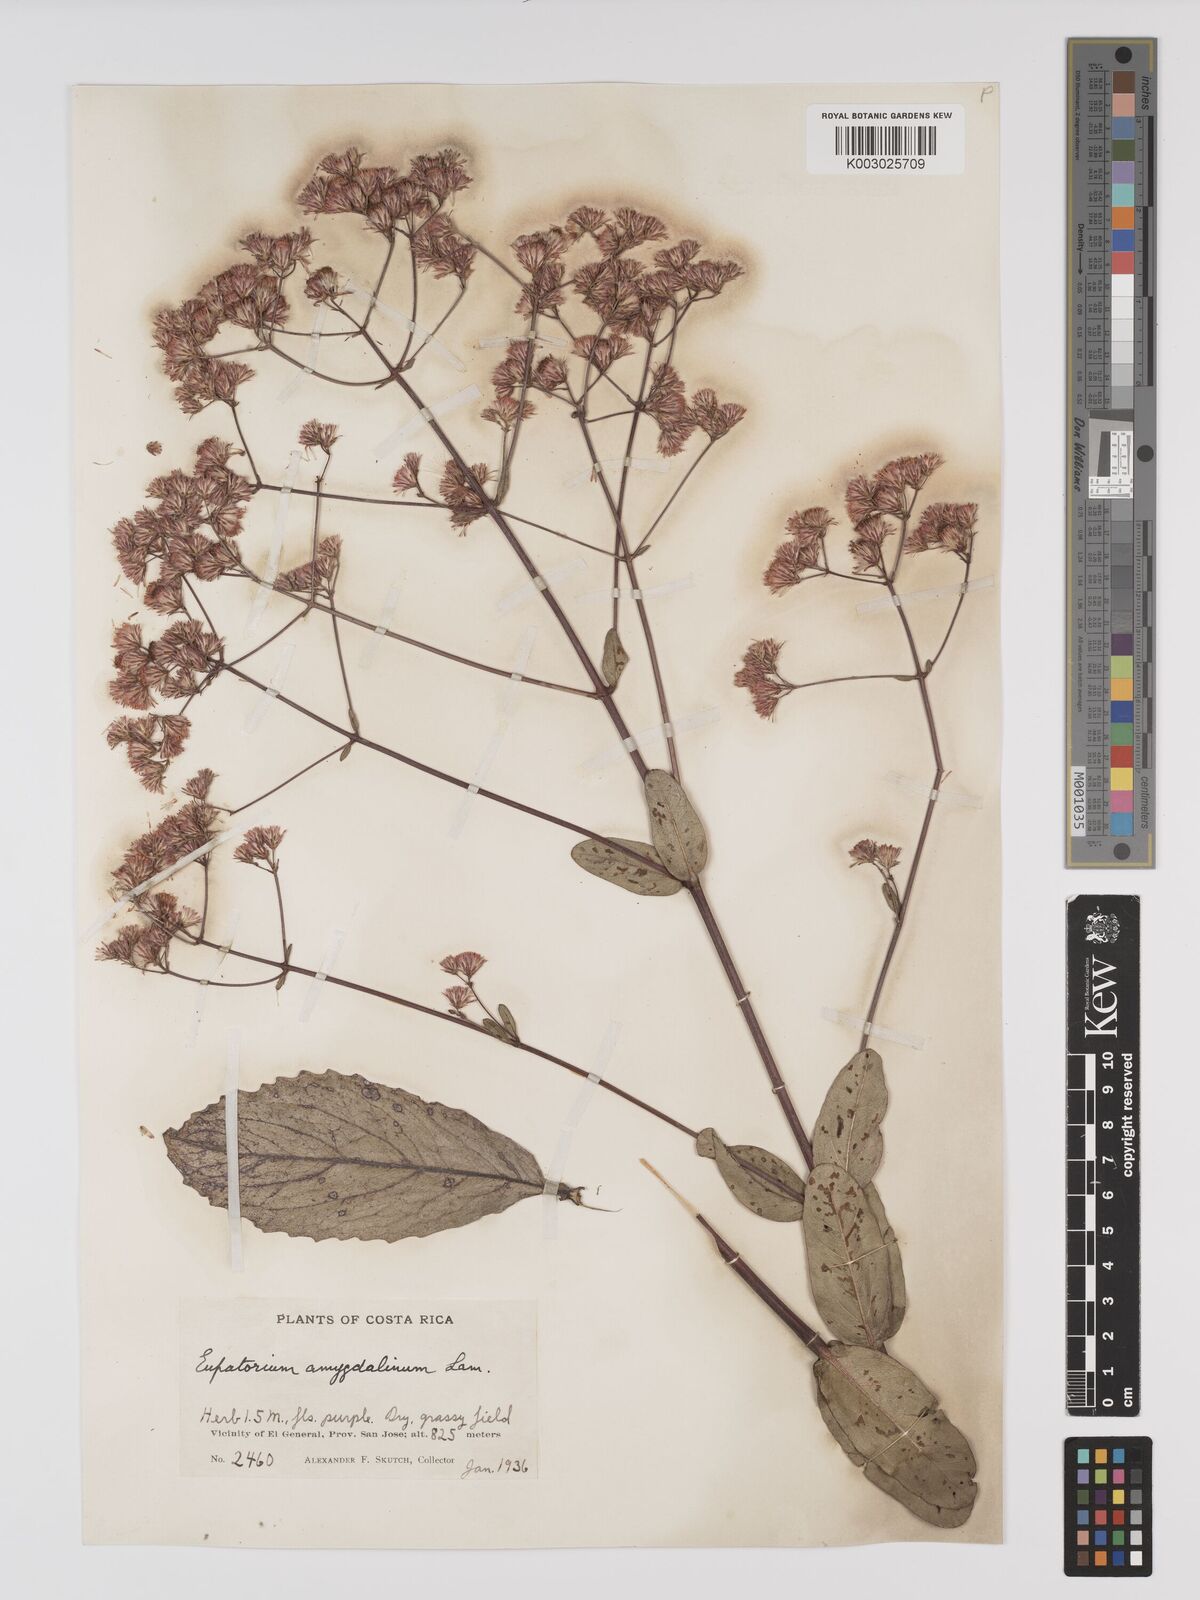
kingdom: Plantae
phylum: Tracheophyta
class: Magnoliopsida
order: Asterales
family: Asteraceae
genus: Ayapana
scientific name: Ayapana amygdalina
